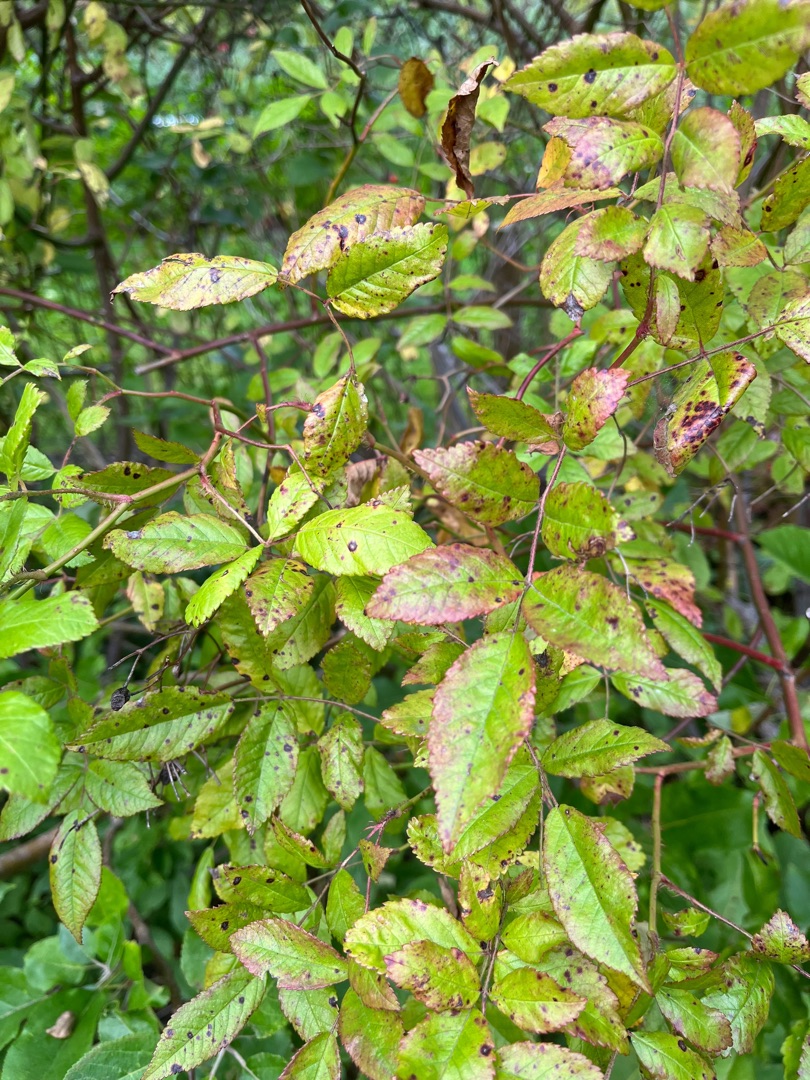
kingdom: Plantae
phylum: Tracheophyta
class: Magnoliopsida
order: Rosales
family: Rosaceae
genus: Rosa
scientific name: Rosa canina
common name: Glat hunde-rose
